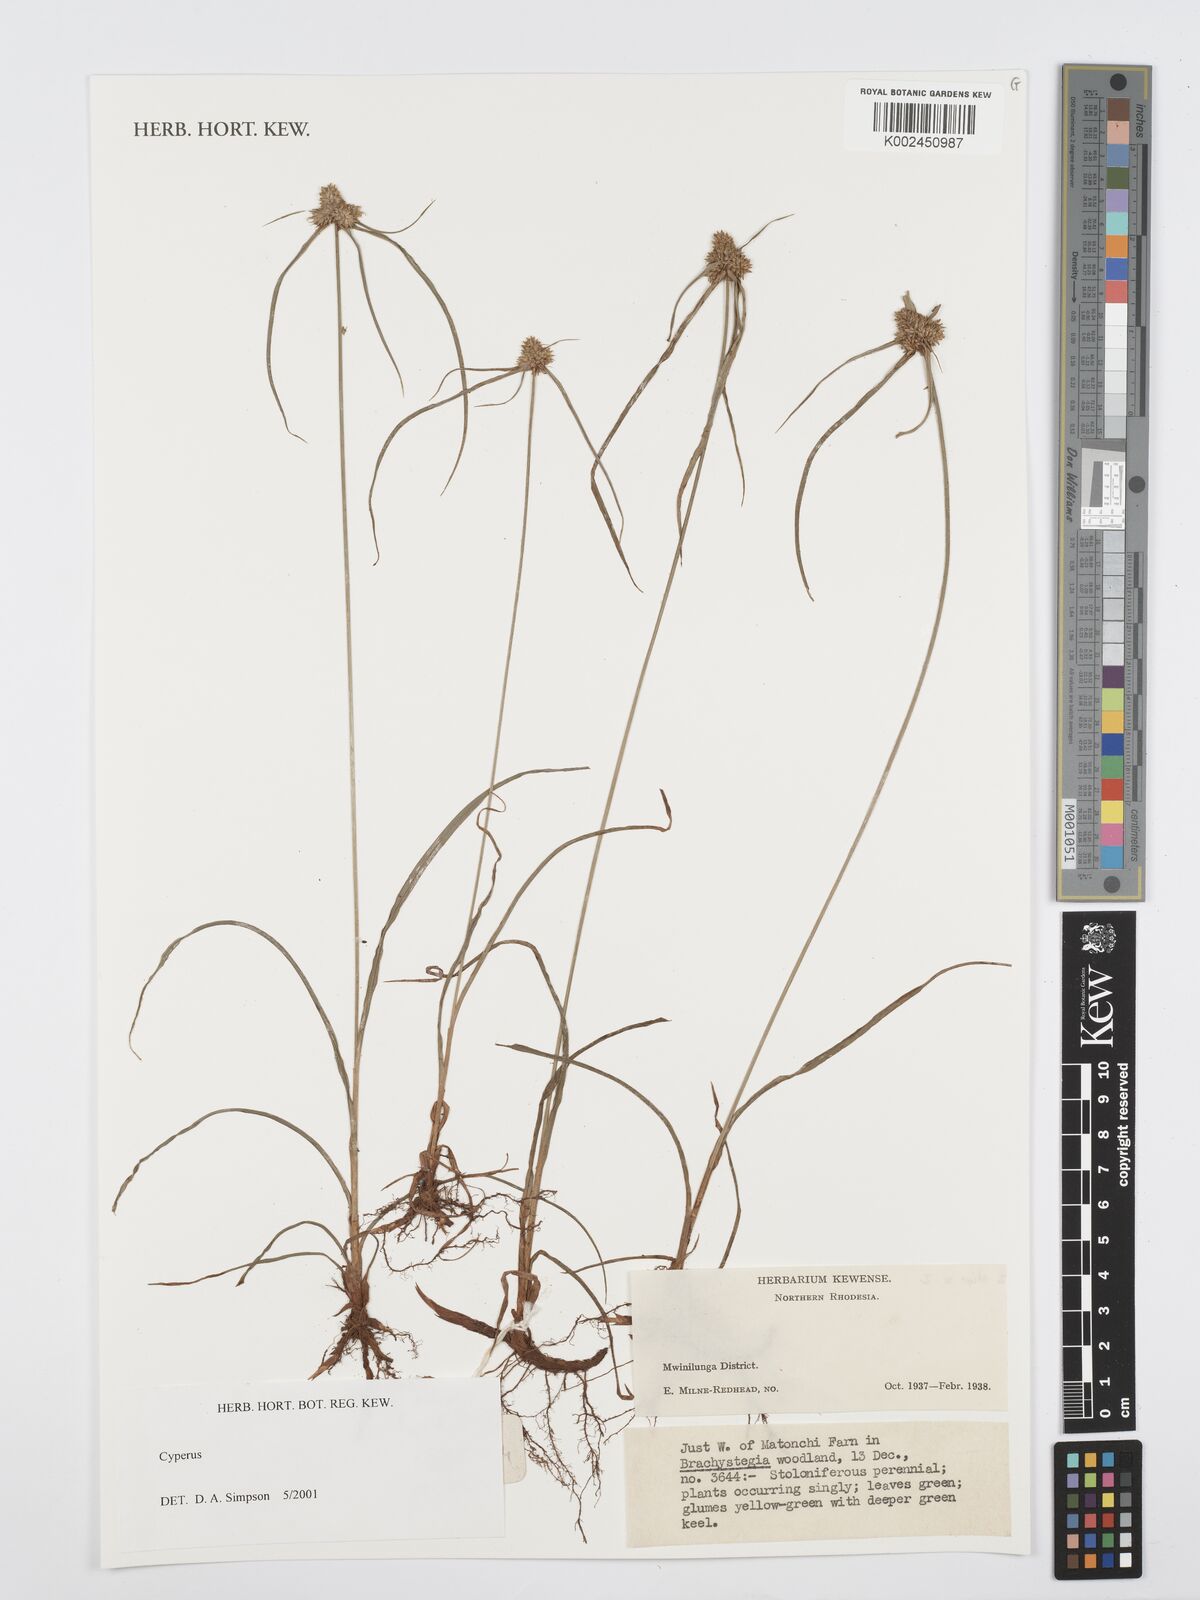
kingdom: Plantae
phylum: Tracheophyta
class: Liliopsida
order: Poales
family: Cyperaceae
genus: Cyperus
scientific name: Cyperus
